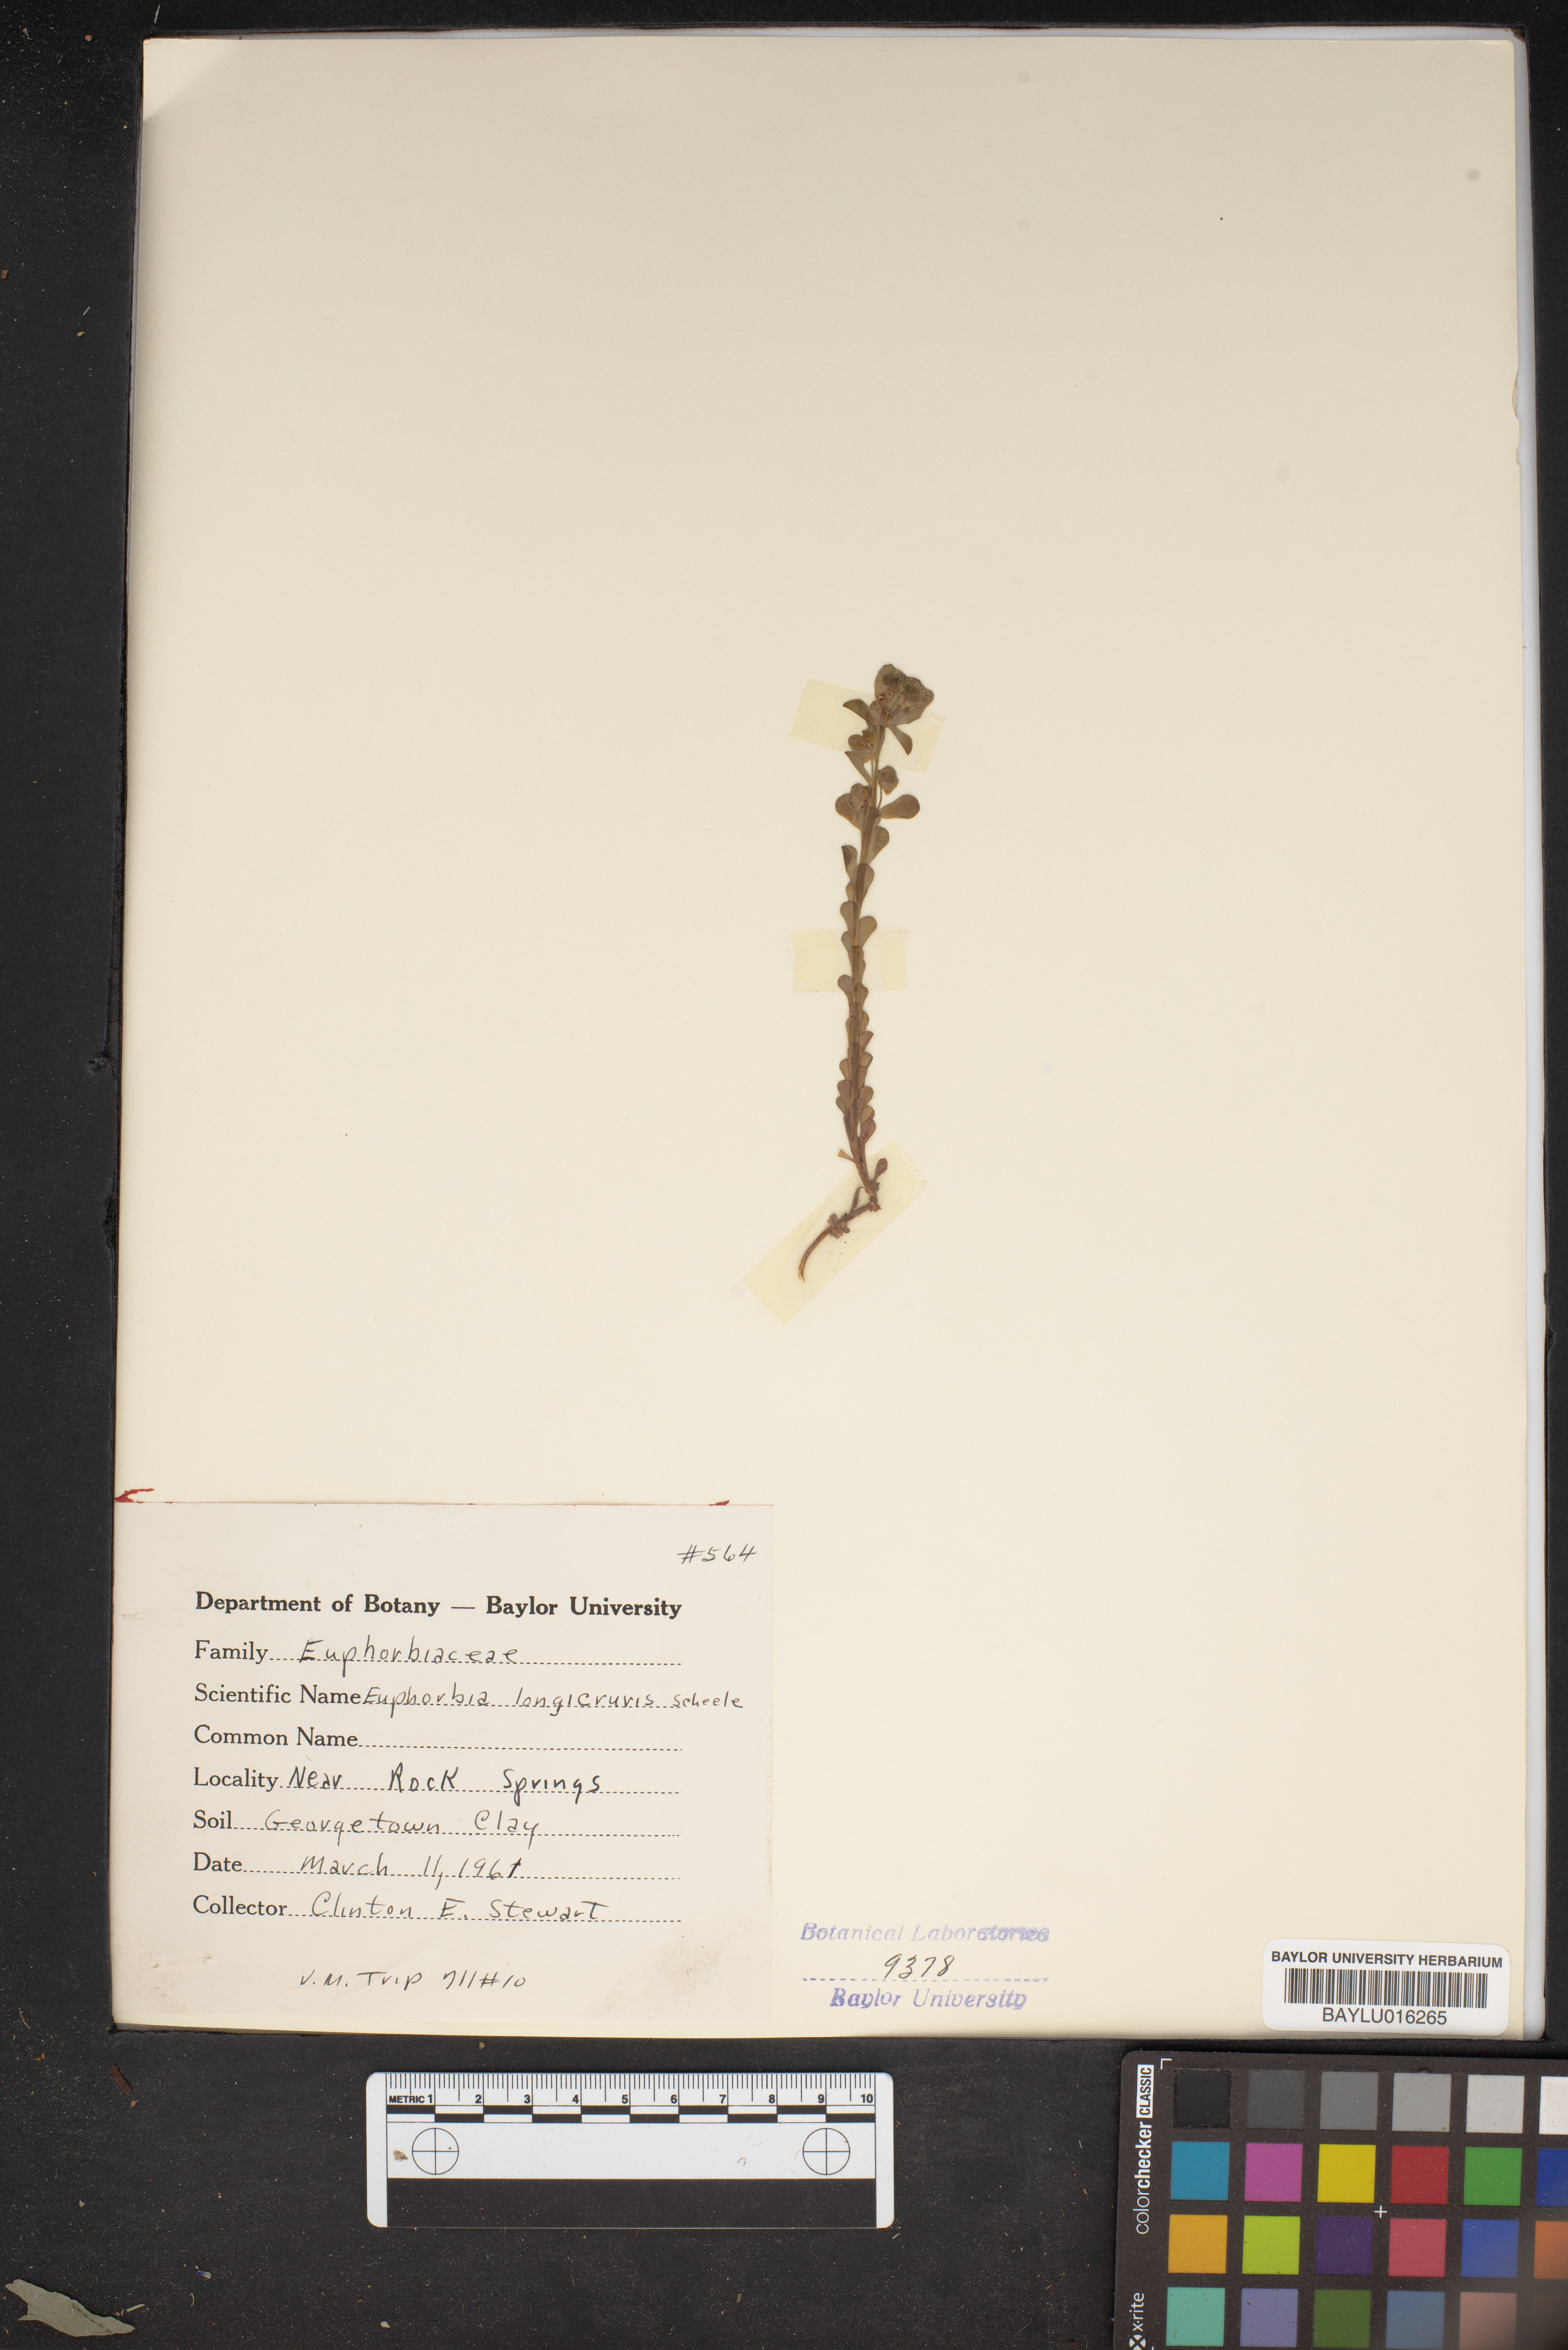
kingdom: Plantae
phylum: Tracheophyta
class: Magnoliopsida
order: Malpighiales
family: Euphorbiaceae
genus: Euphorbia
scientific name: Euphorbia longicruris
